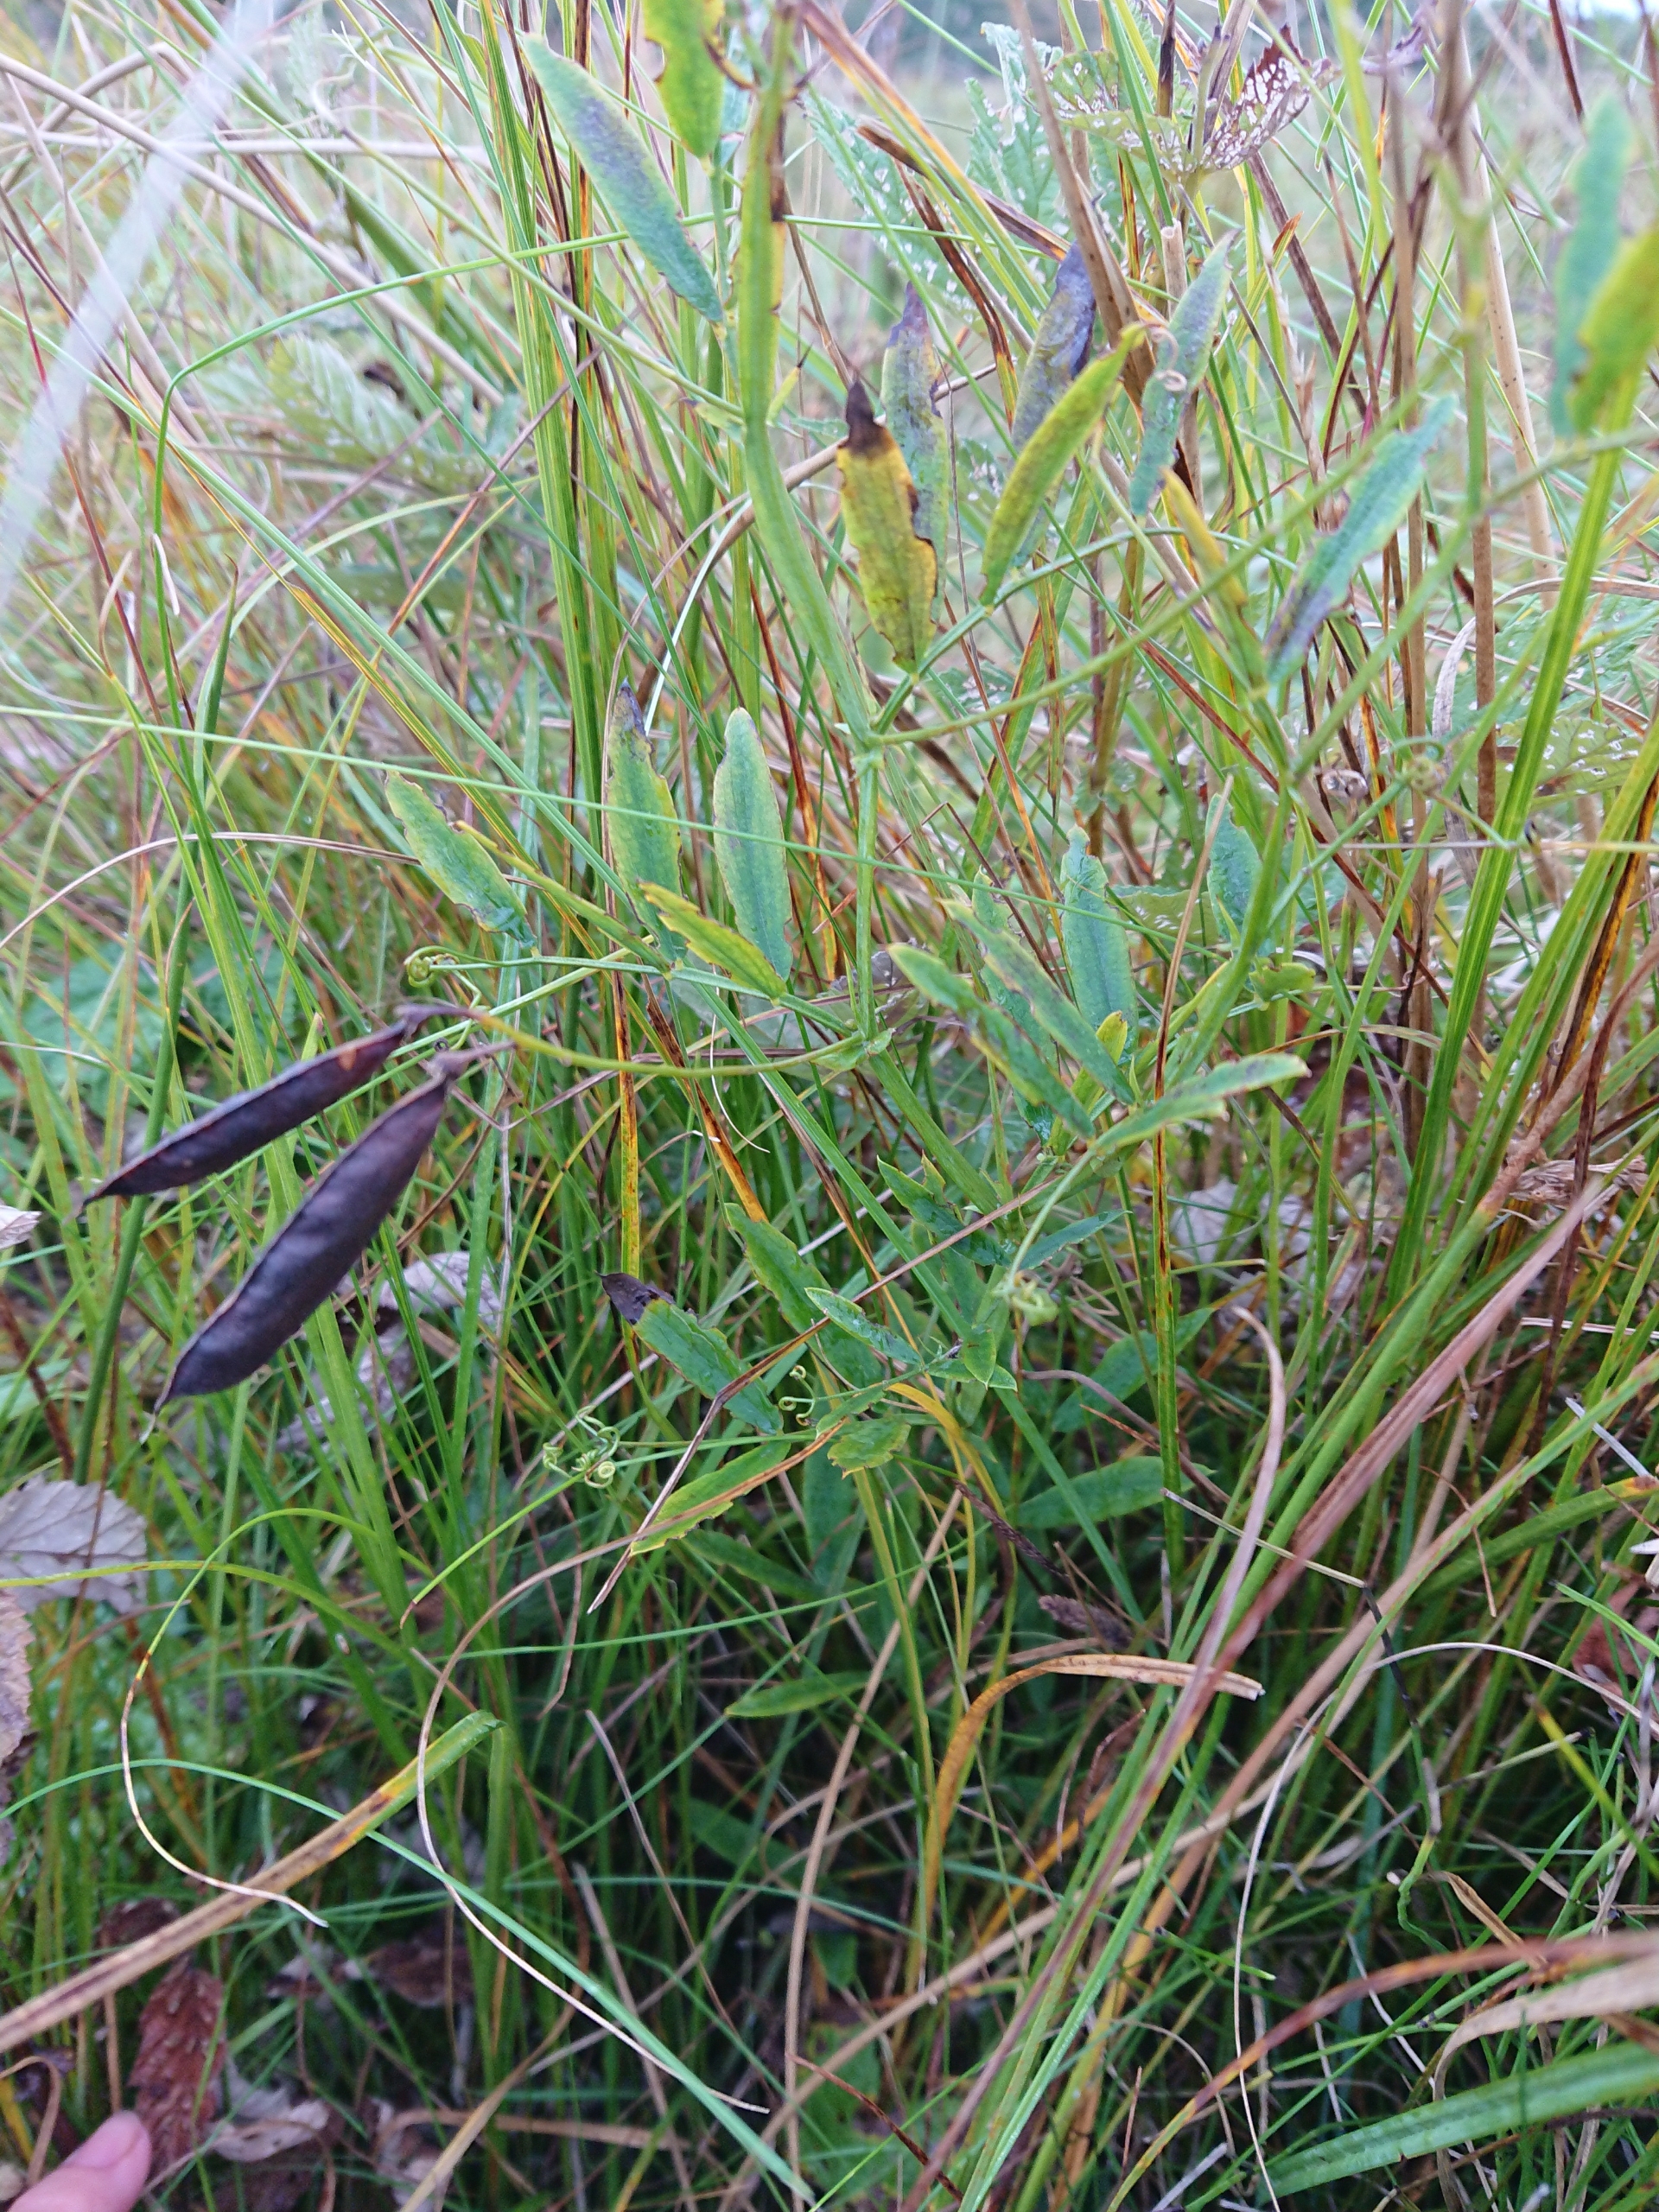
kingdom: Plantae
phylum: Tracheophyta
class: Magnoliopsida
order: Fabales
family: Fabaceae
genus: Lathyrus
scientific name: Lathyrus palustris
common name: Kær-fladbælg
